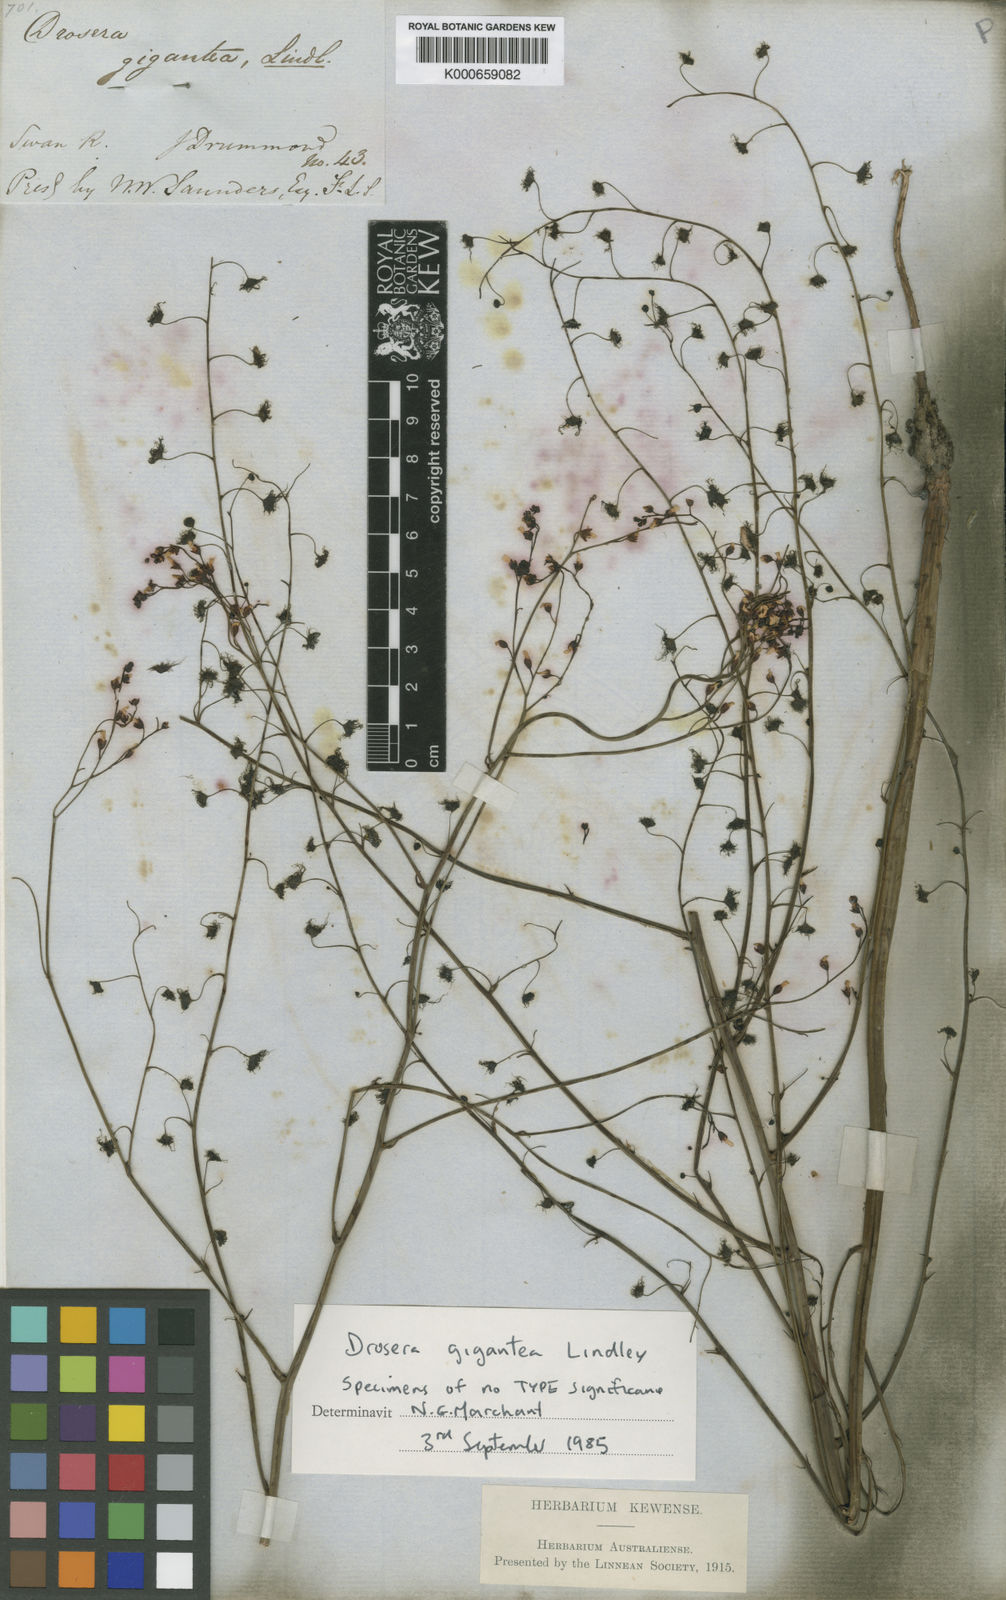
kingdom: Plantae
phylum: Tracheophyta
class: Magnoliopsida
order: Caryophyllales
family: Droseraceae
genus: Drosera
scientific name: Drosera gigantea
